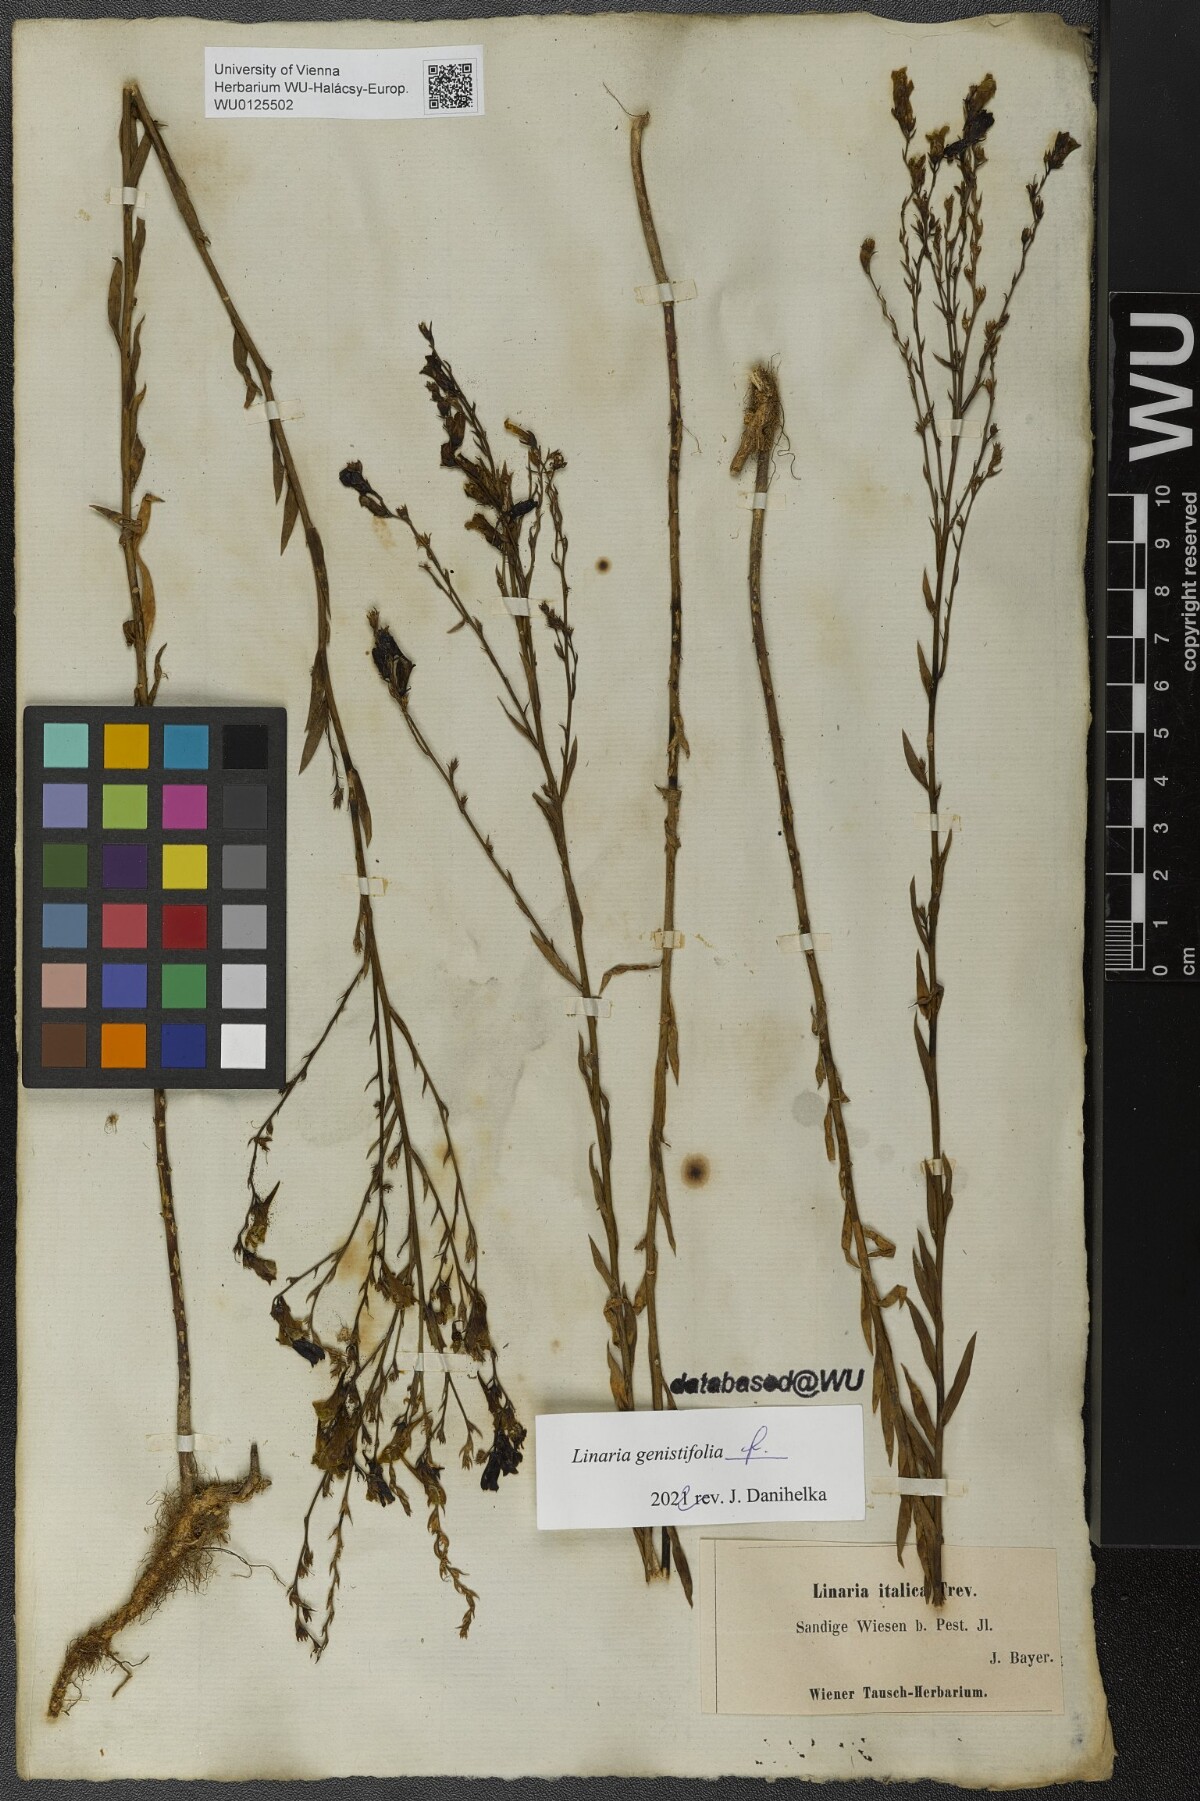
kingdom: Plantae
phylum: Tracheophyta
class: Magnoliopsida
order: Lamiales
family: Plantaginaceae
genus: Linaria
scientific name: Linaria genistifolia
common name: Broomleaf toadflax
